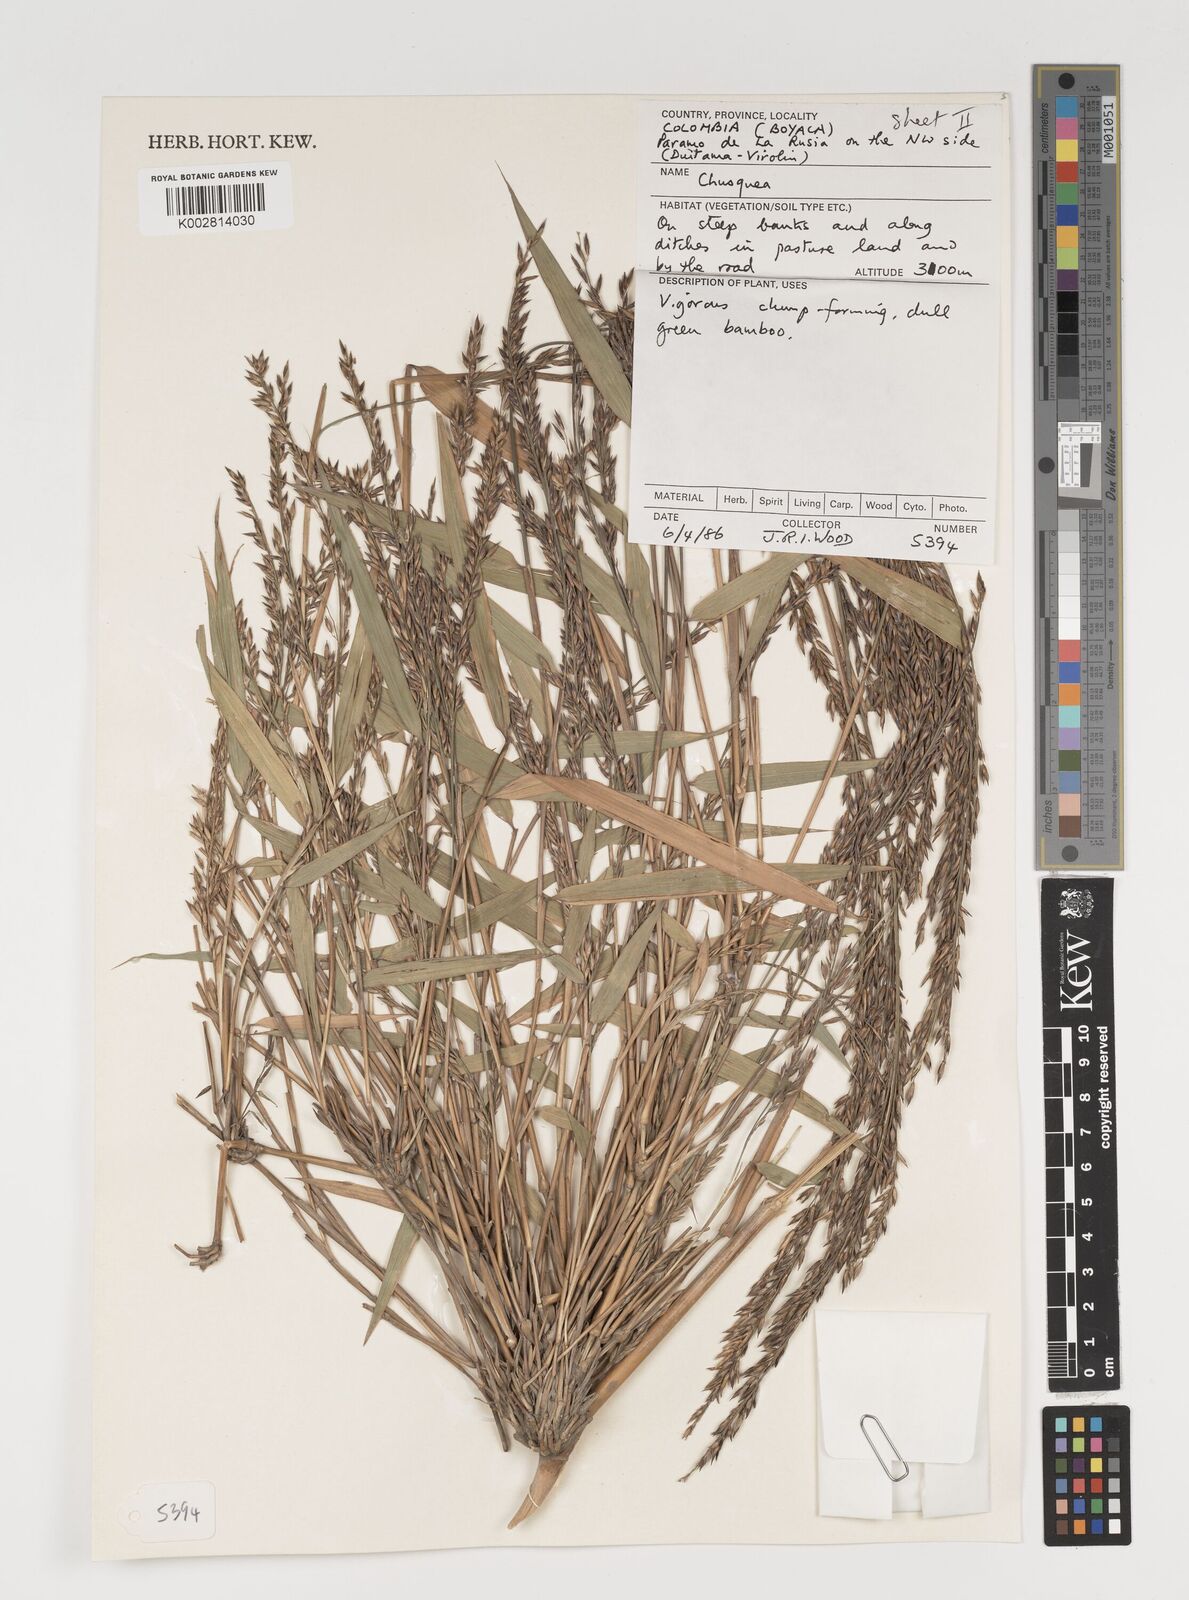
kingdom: Plantae
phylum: Tracheophyta
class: Liliopsida
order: Poales
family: Poaceae
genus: Chusquea
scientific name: Chusquea
